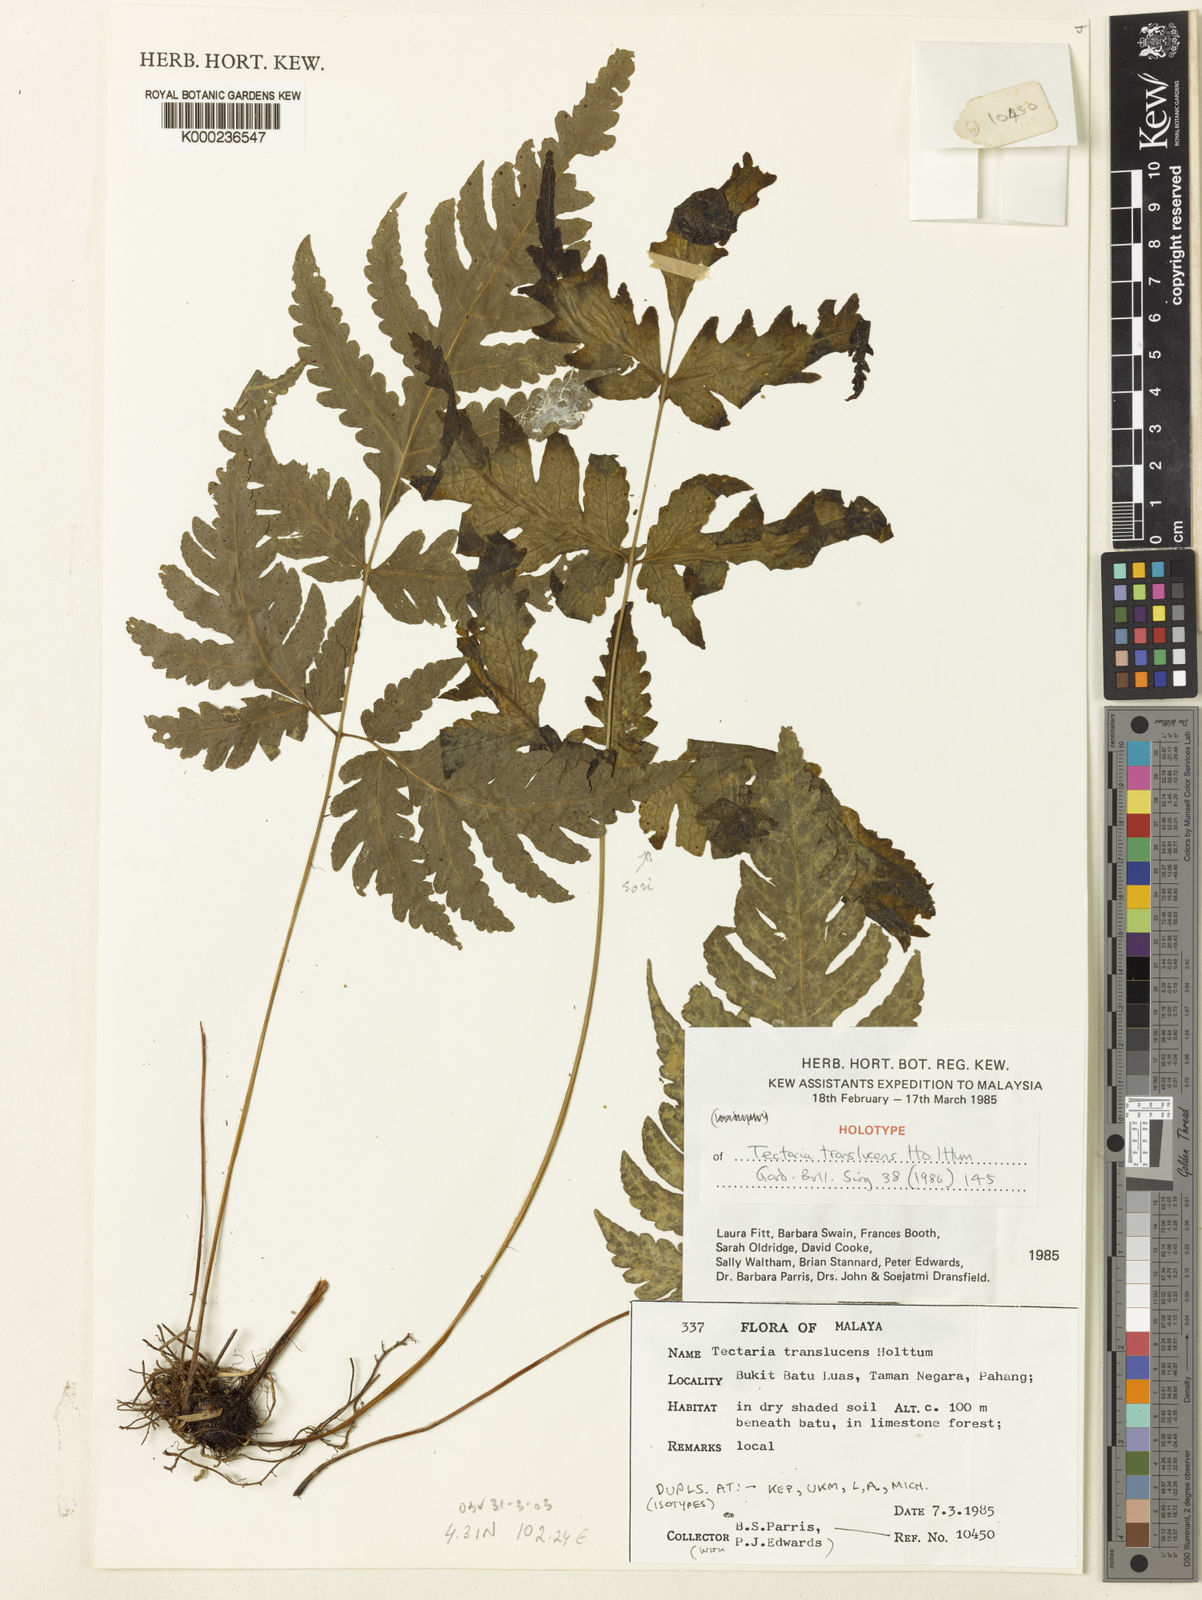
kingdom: Plantae
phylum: Tracheophyta
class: Polypodiopsida
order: Polypodiales
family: Tectariaceae
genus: Tectaria
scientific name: Tectaria translucens
